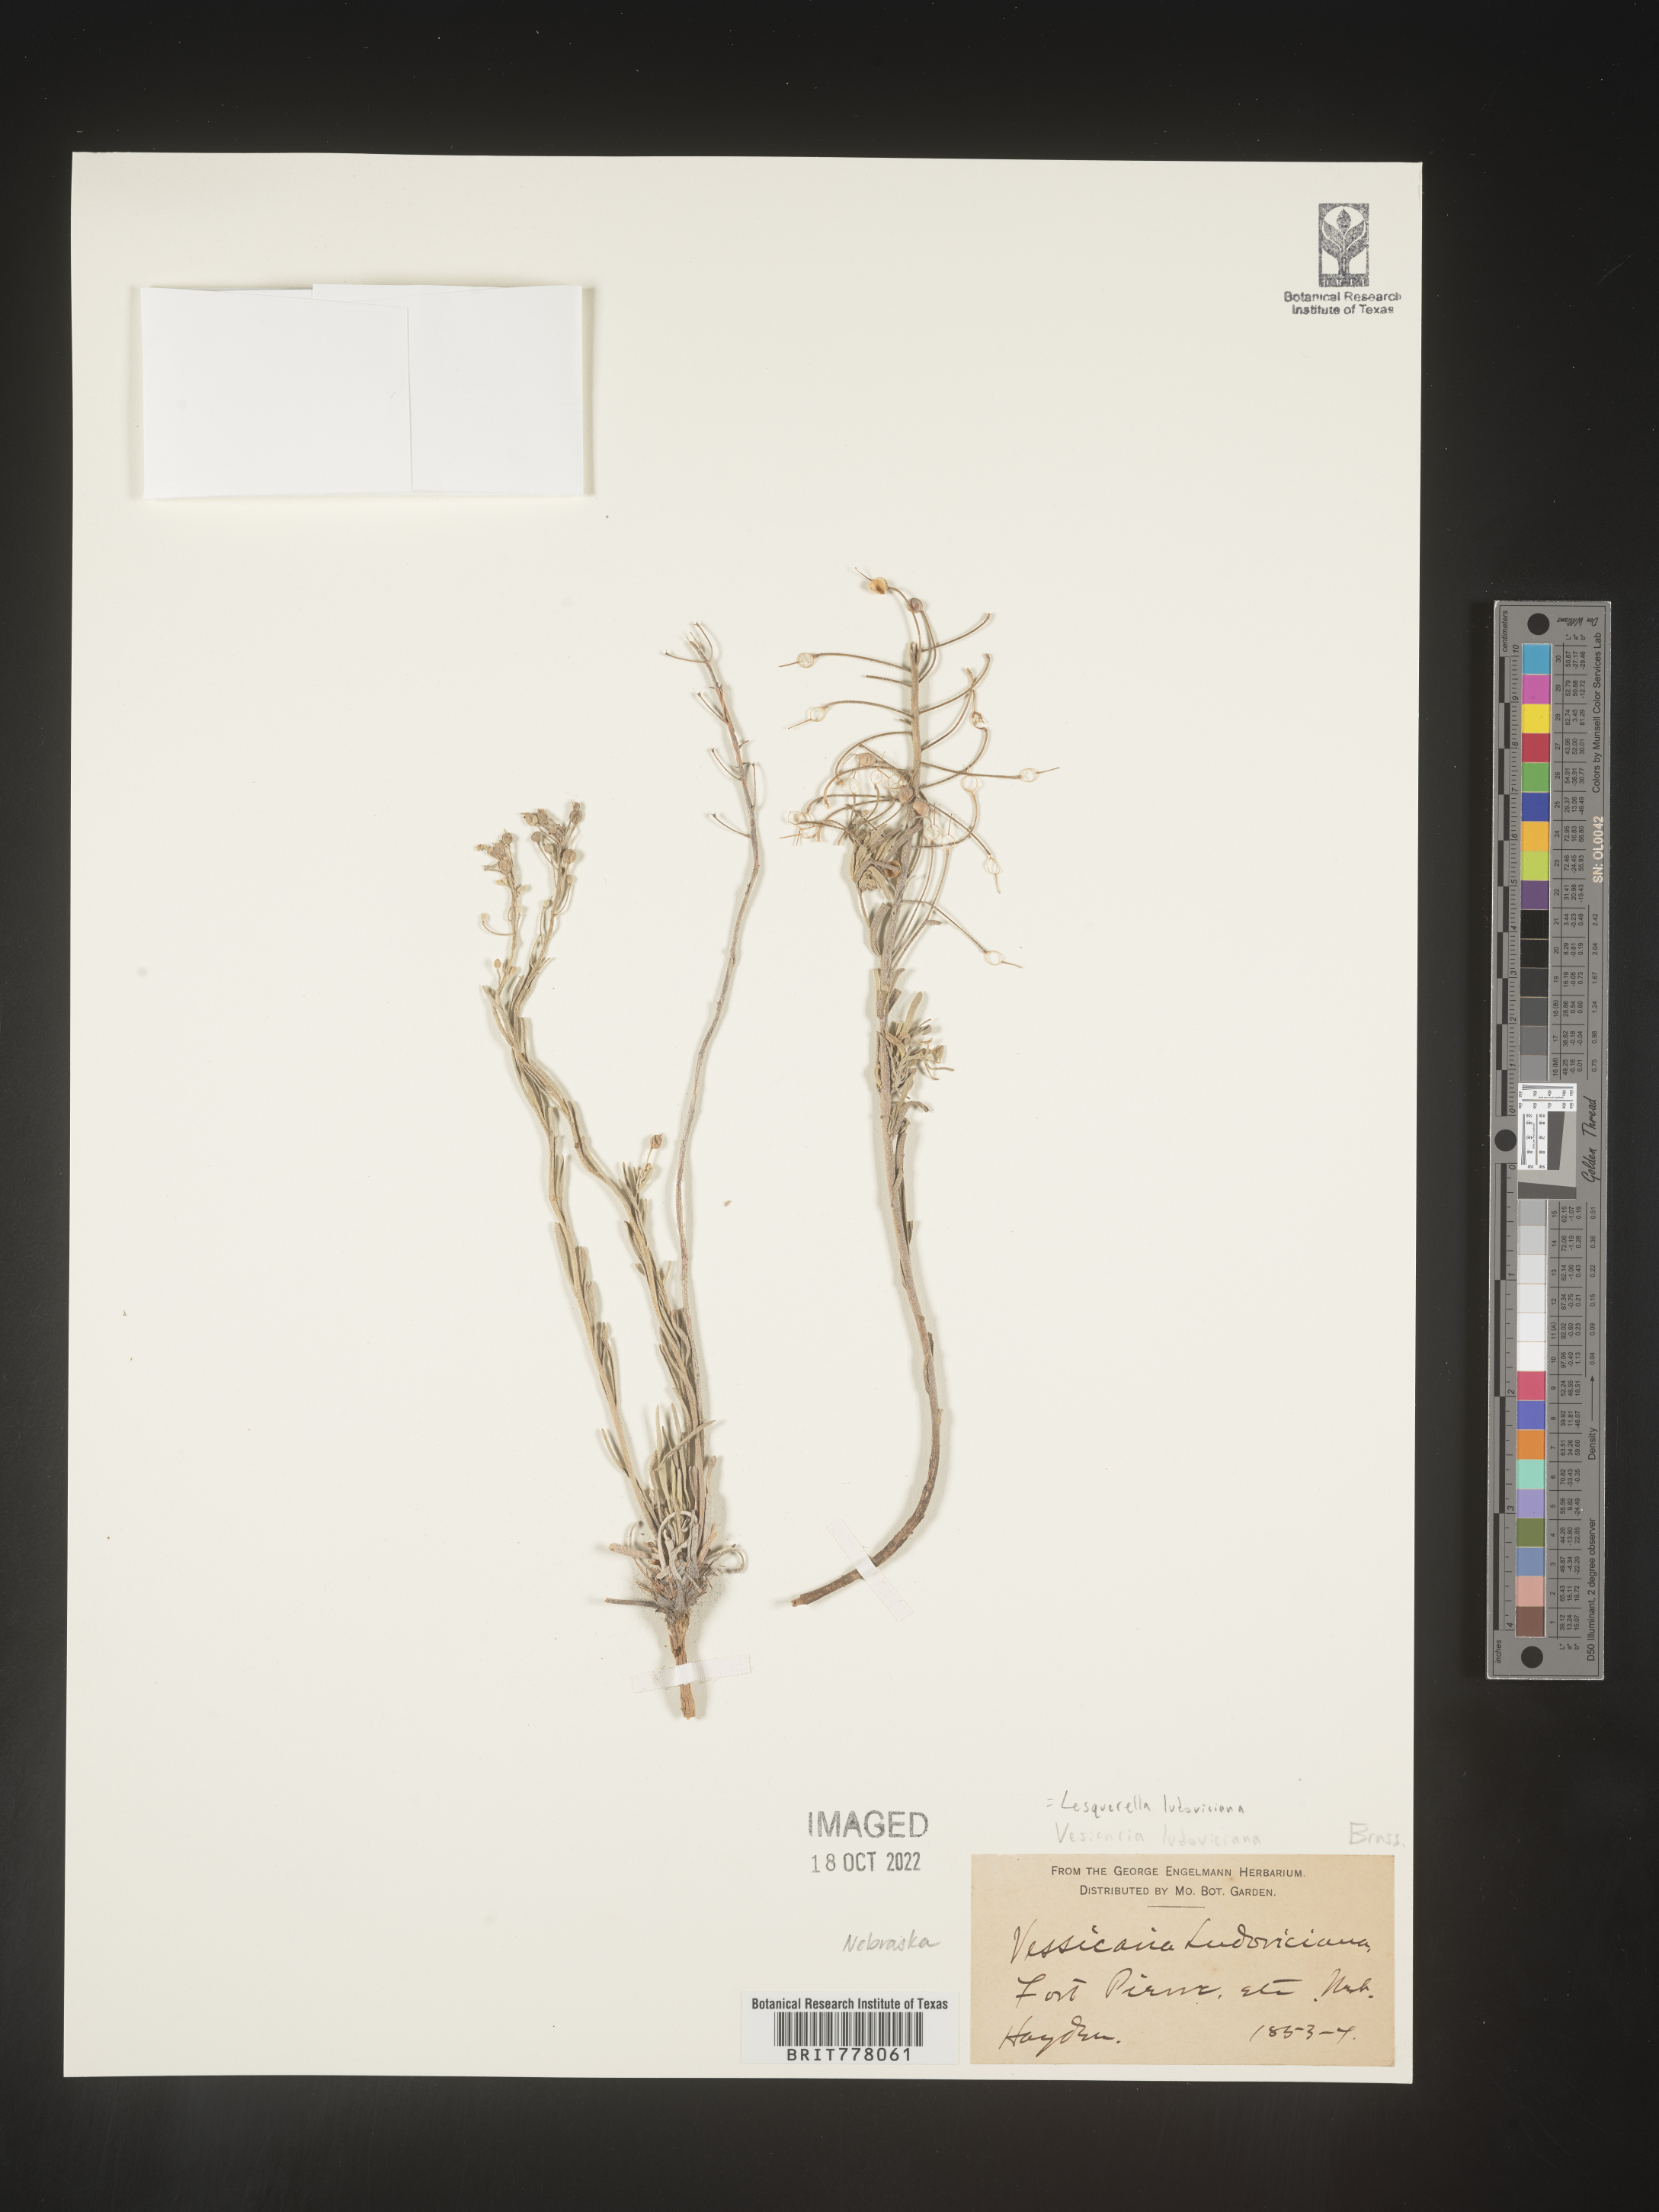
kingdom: Chromista
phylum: Cercozoa
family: Psammonobiotidae
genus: Lesquerella
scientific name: Lesquerella
